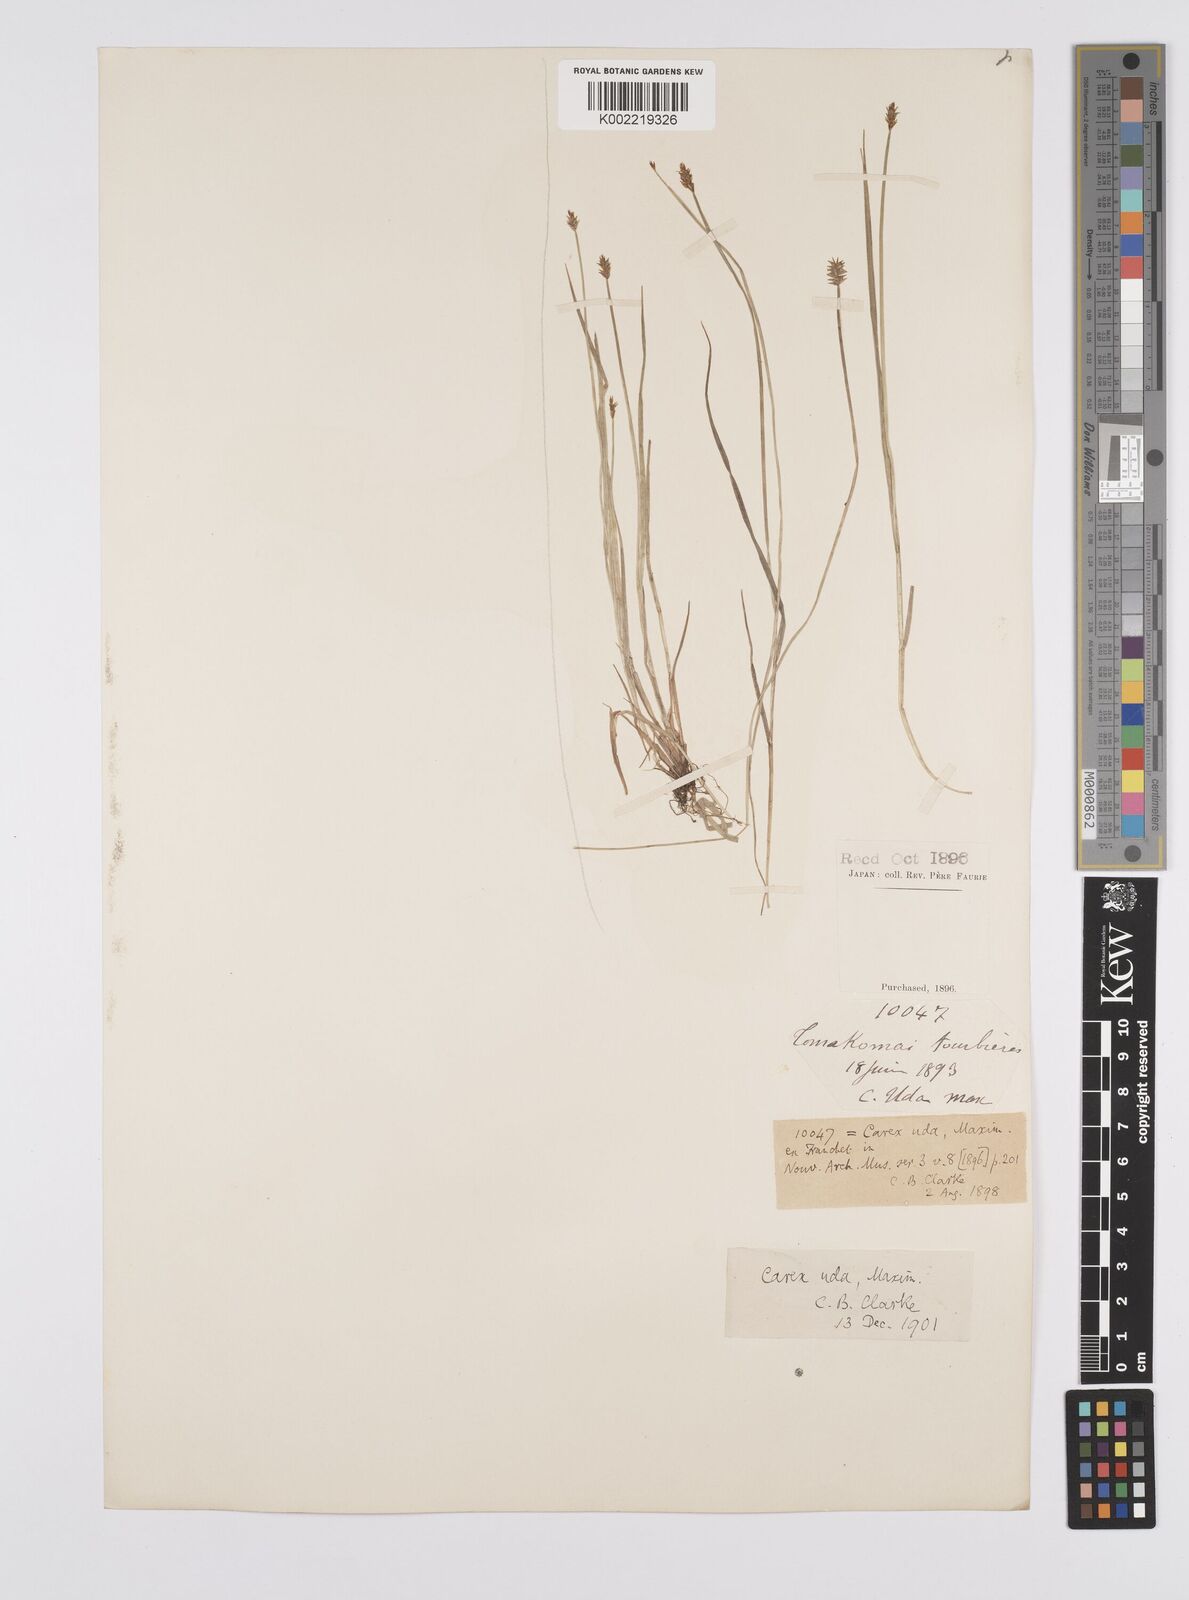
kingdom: Plantae
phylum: Tracheophyta
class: Liliopsida
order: Poales
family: Cyperaceae
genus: Carex
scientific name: Carex uda
